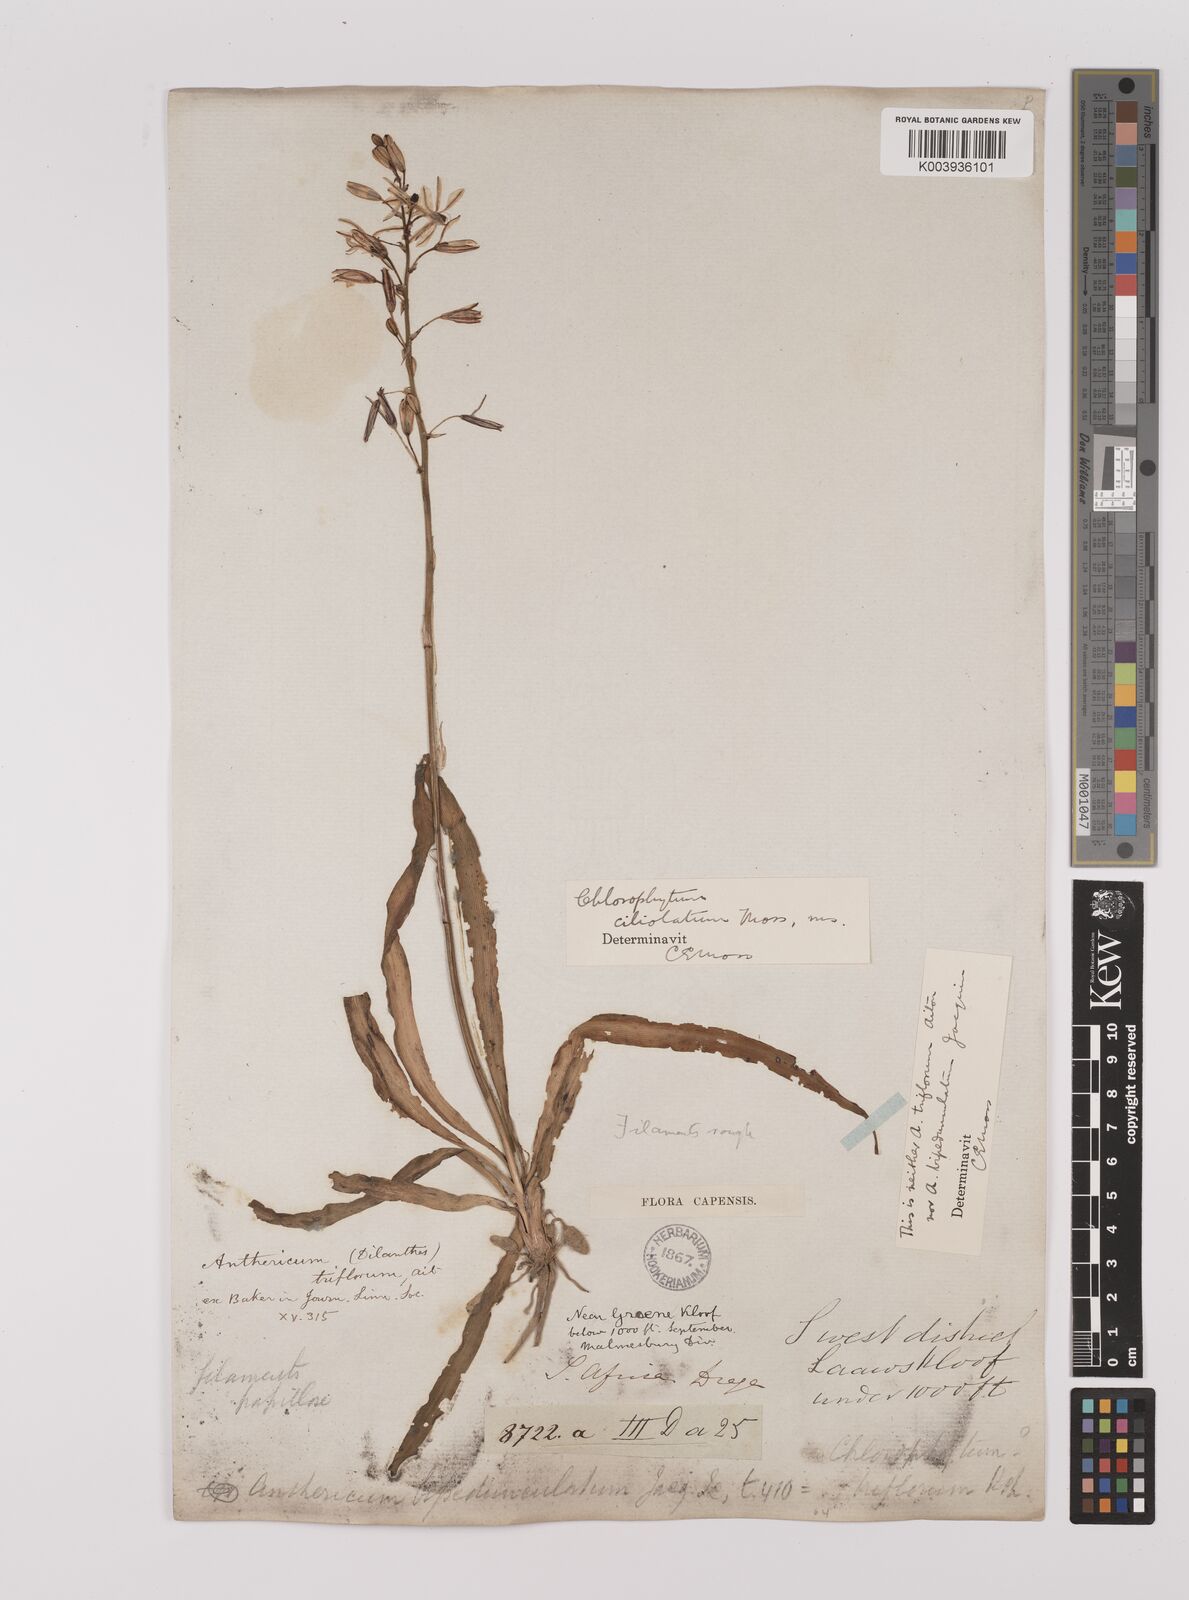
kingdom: Plantae
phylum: Tracheophyta
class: Liliopsida
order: Asparagales
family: Asparagaceae
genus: Chlorophytum
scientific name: Chlorophytum triflorum
